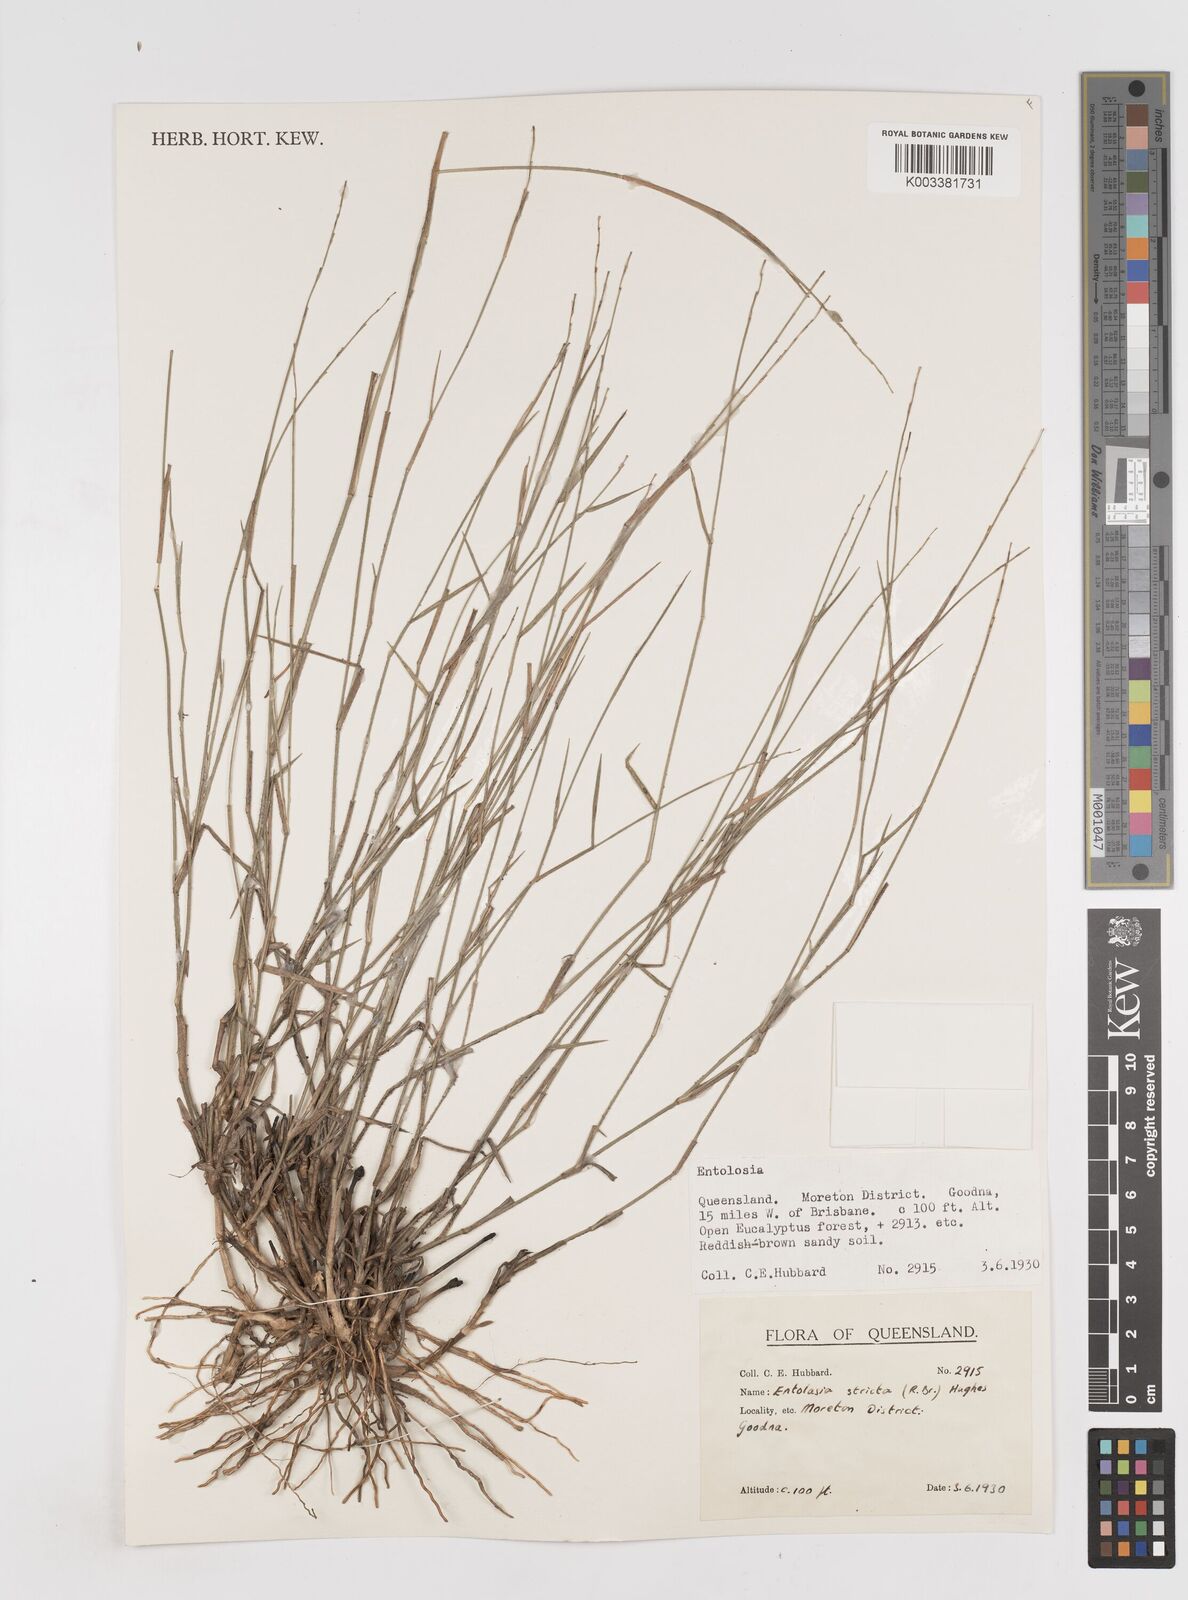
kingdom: Plantae
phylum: Tracheophyta
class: Liliopsida
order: Poales
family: Poaceae
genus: Entolasia
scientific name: Entolasia stricta
